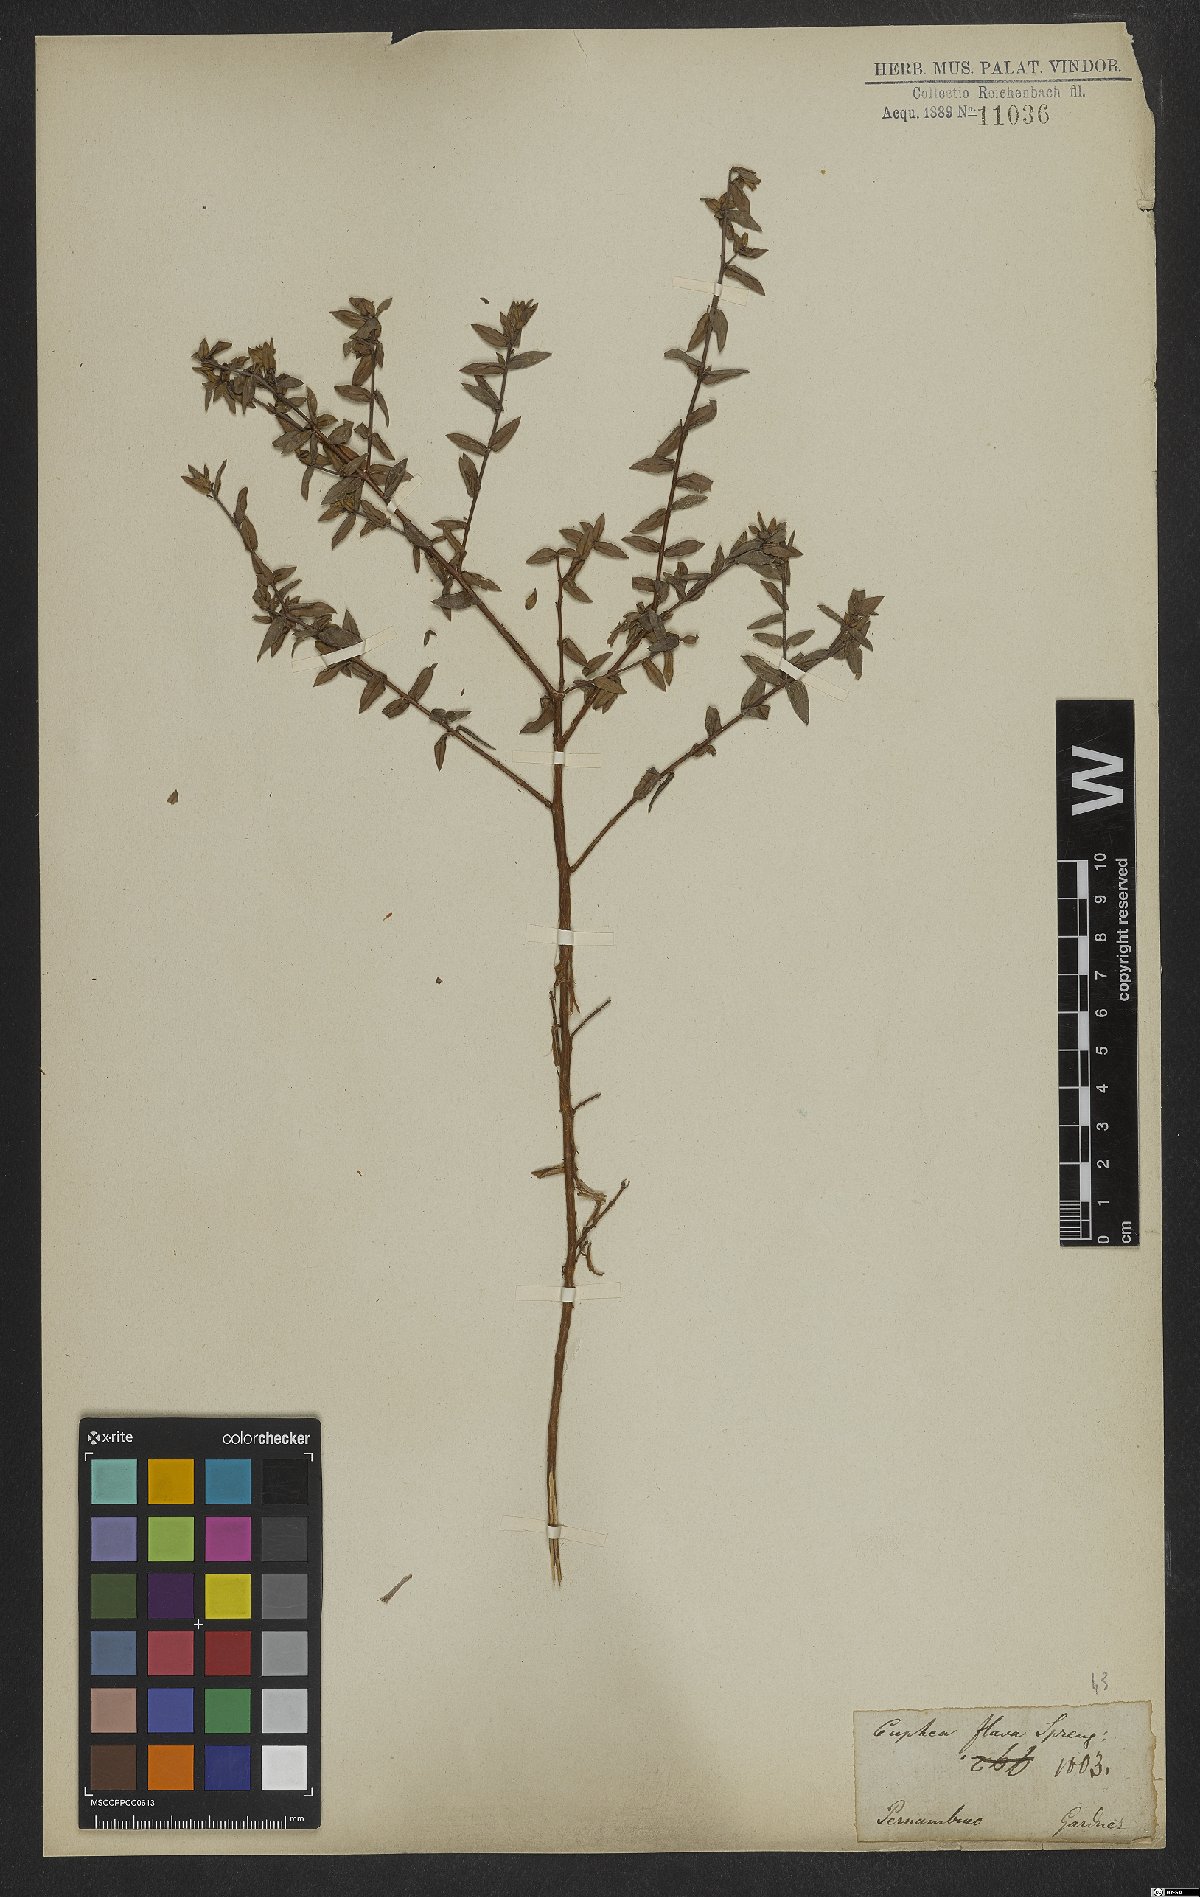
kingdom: Plantae
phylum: Tracheophyta
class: Magnoliopsida
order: Myrtales
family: Lythraceae
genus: Cuphea
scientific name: Cuphea flava
